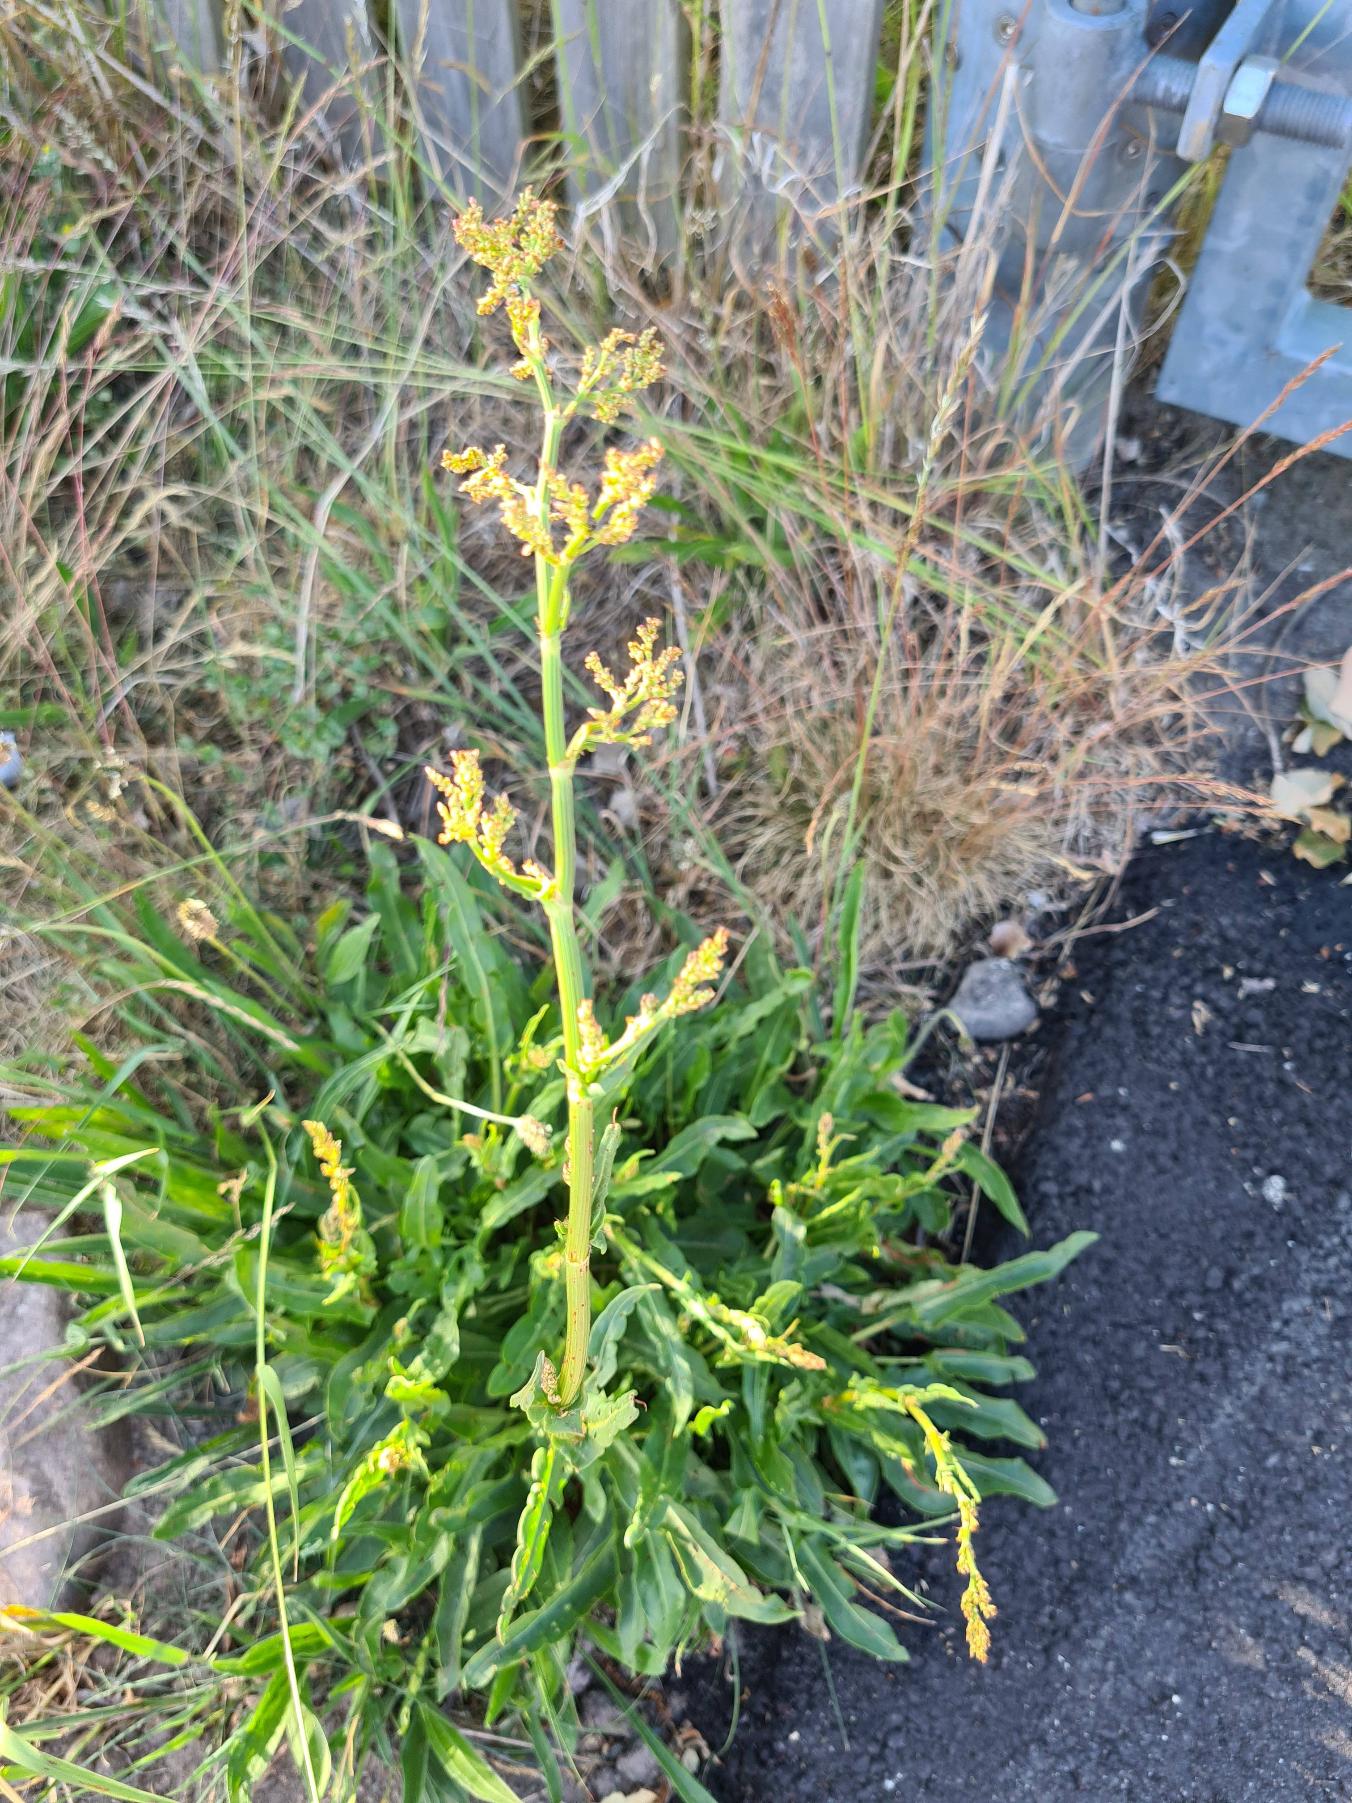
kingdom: Plantae
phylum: Tracheophyta
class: Magnoliopsida
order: Caryophyllales
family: Polygonaceae
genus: Rumex
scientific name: Rumex thyrsiflorus
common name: Dusk-syre
